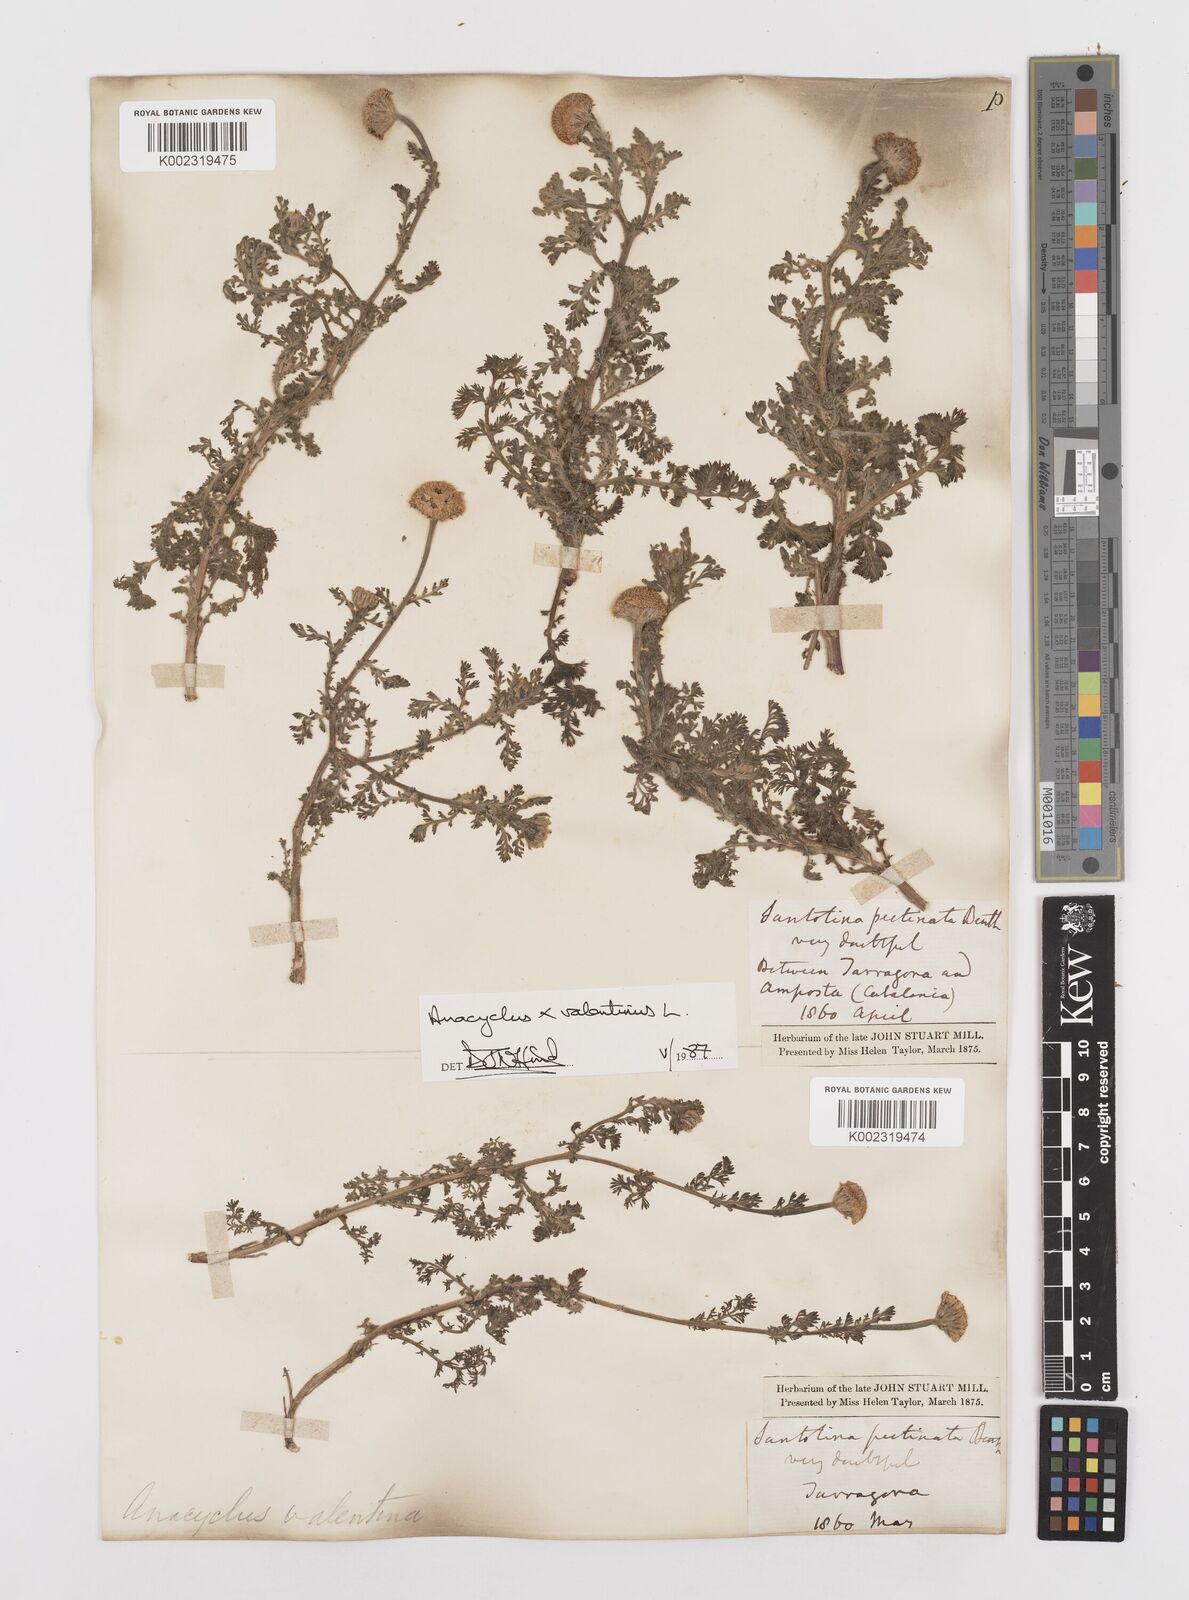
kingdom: Plantae
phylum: Tracheophyta
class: Magnoliopsida
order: Asterales
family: Asteraceae
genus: Anacyclus
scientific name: Anacyclus valentinus
